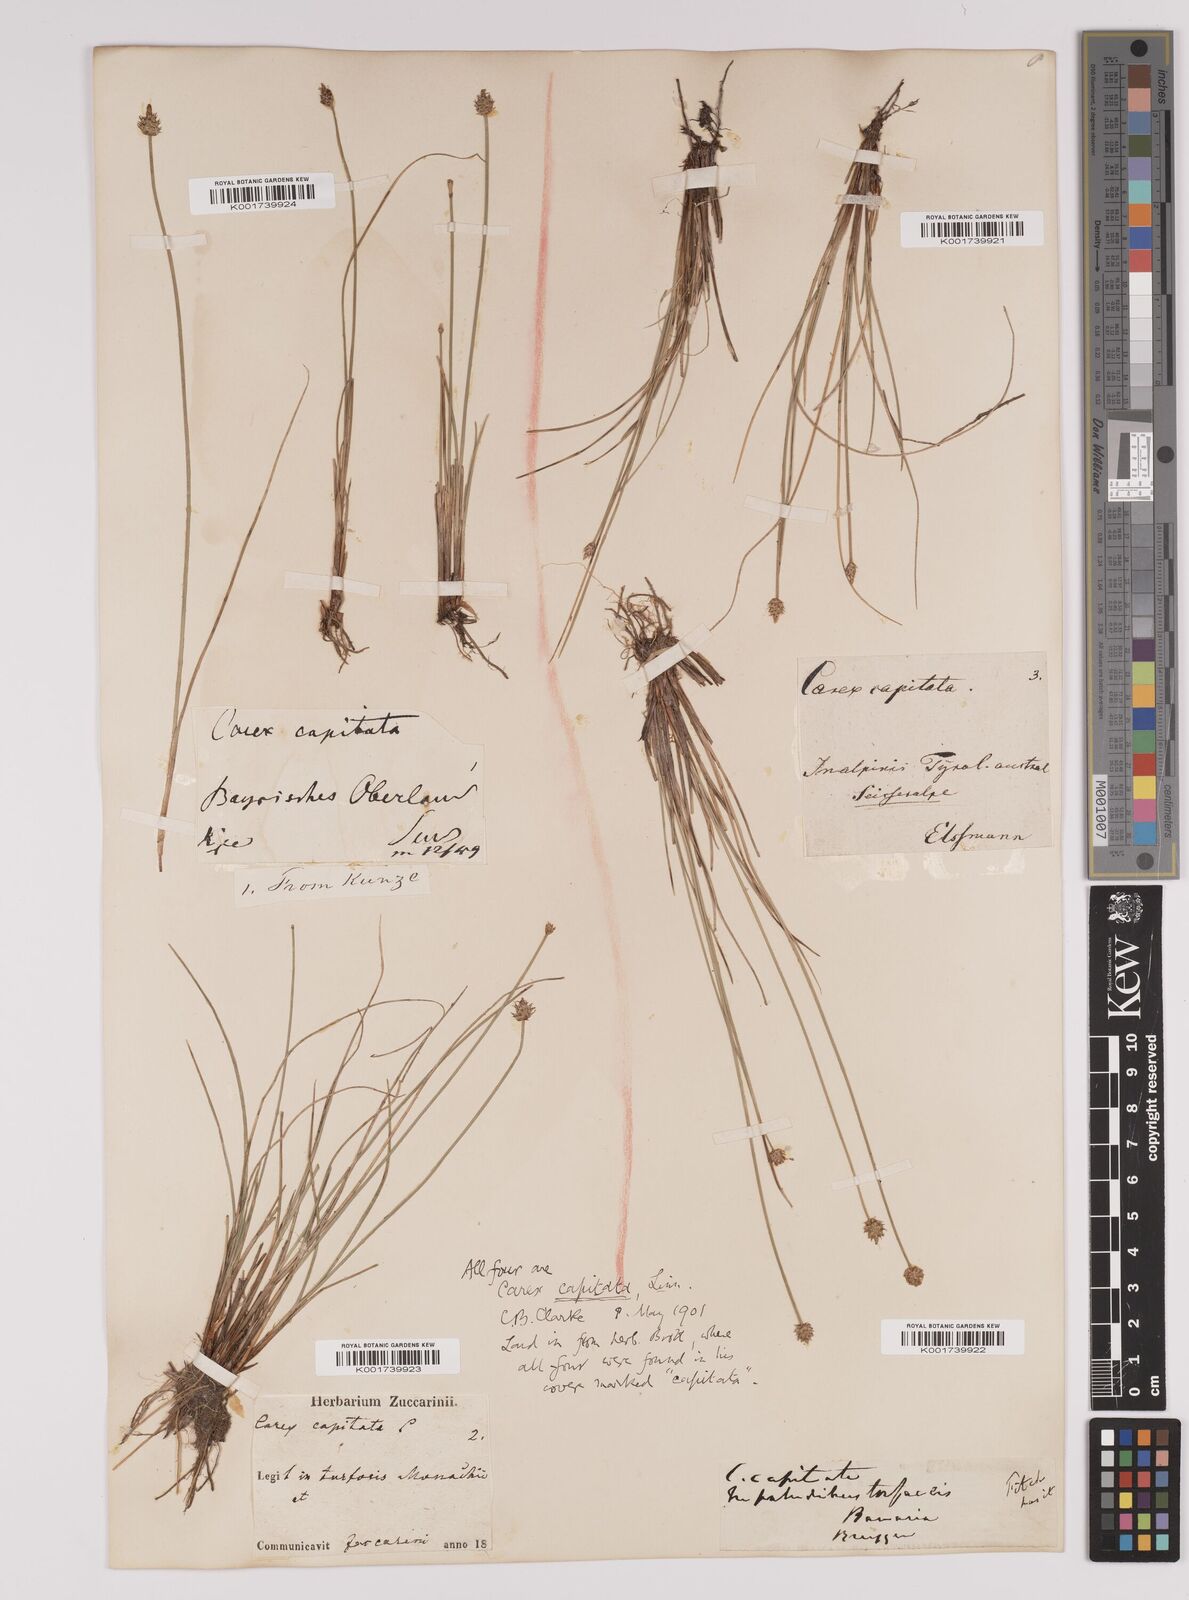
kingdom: Plantae
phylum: Tracheophyta
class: Liliopsida
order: Poales
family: Cyperaceae
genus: Carex
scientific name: Carex capitata
